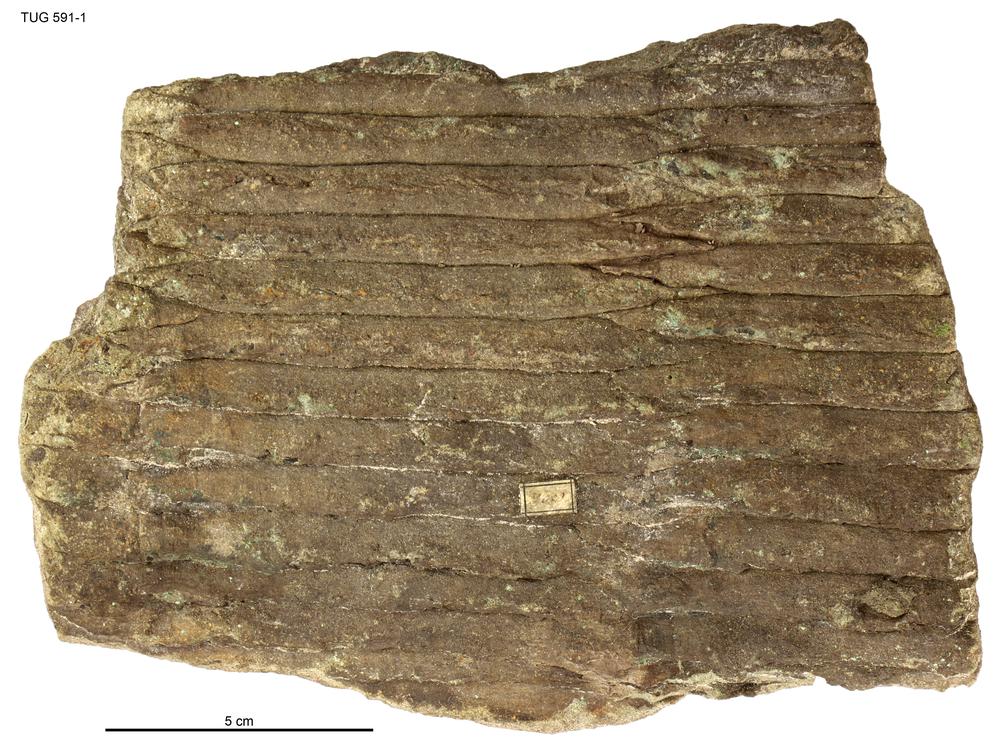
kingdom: Plantae
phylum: Tracheophyta
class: Polypodiopsida
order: Equisetales
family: Calamitaceae
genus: Calamites
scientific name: Calamites
